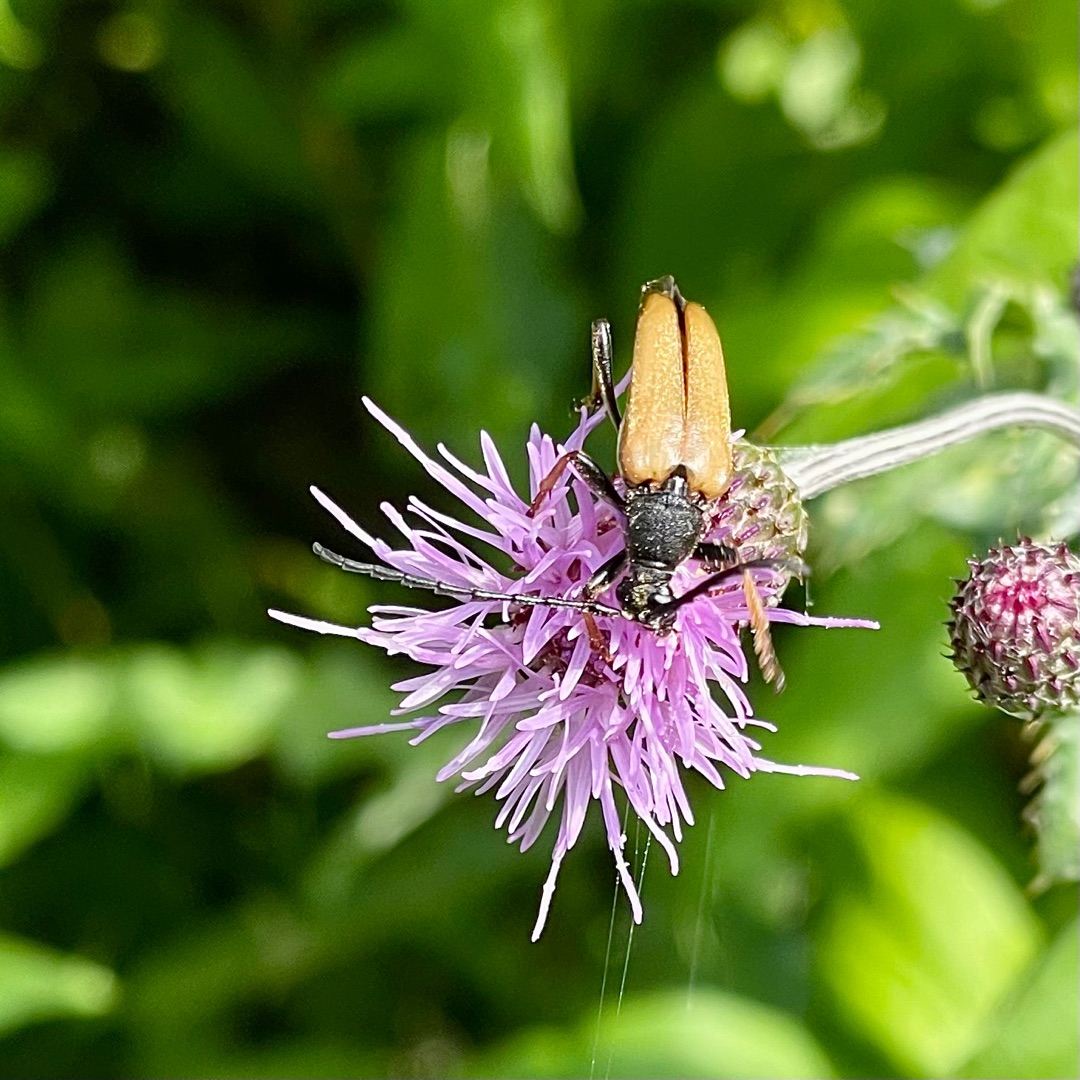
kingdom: Animalia
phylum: Arthropoda
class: Insecta
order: Coleoptera
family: Cerambycidae
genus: Stictoleptura
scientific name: Stictoleptura rubra
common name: Rød blomsterbuk
